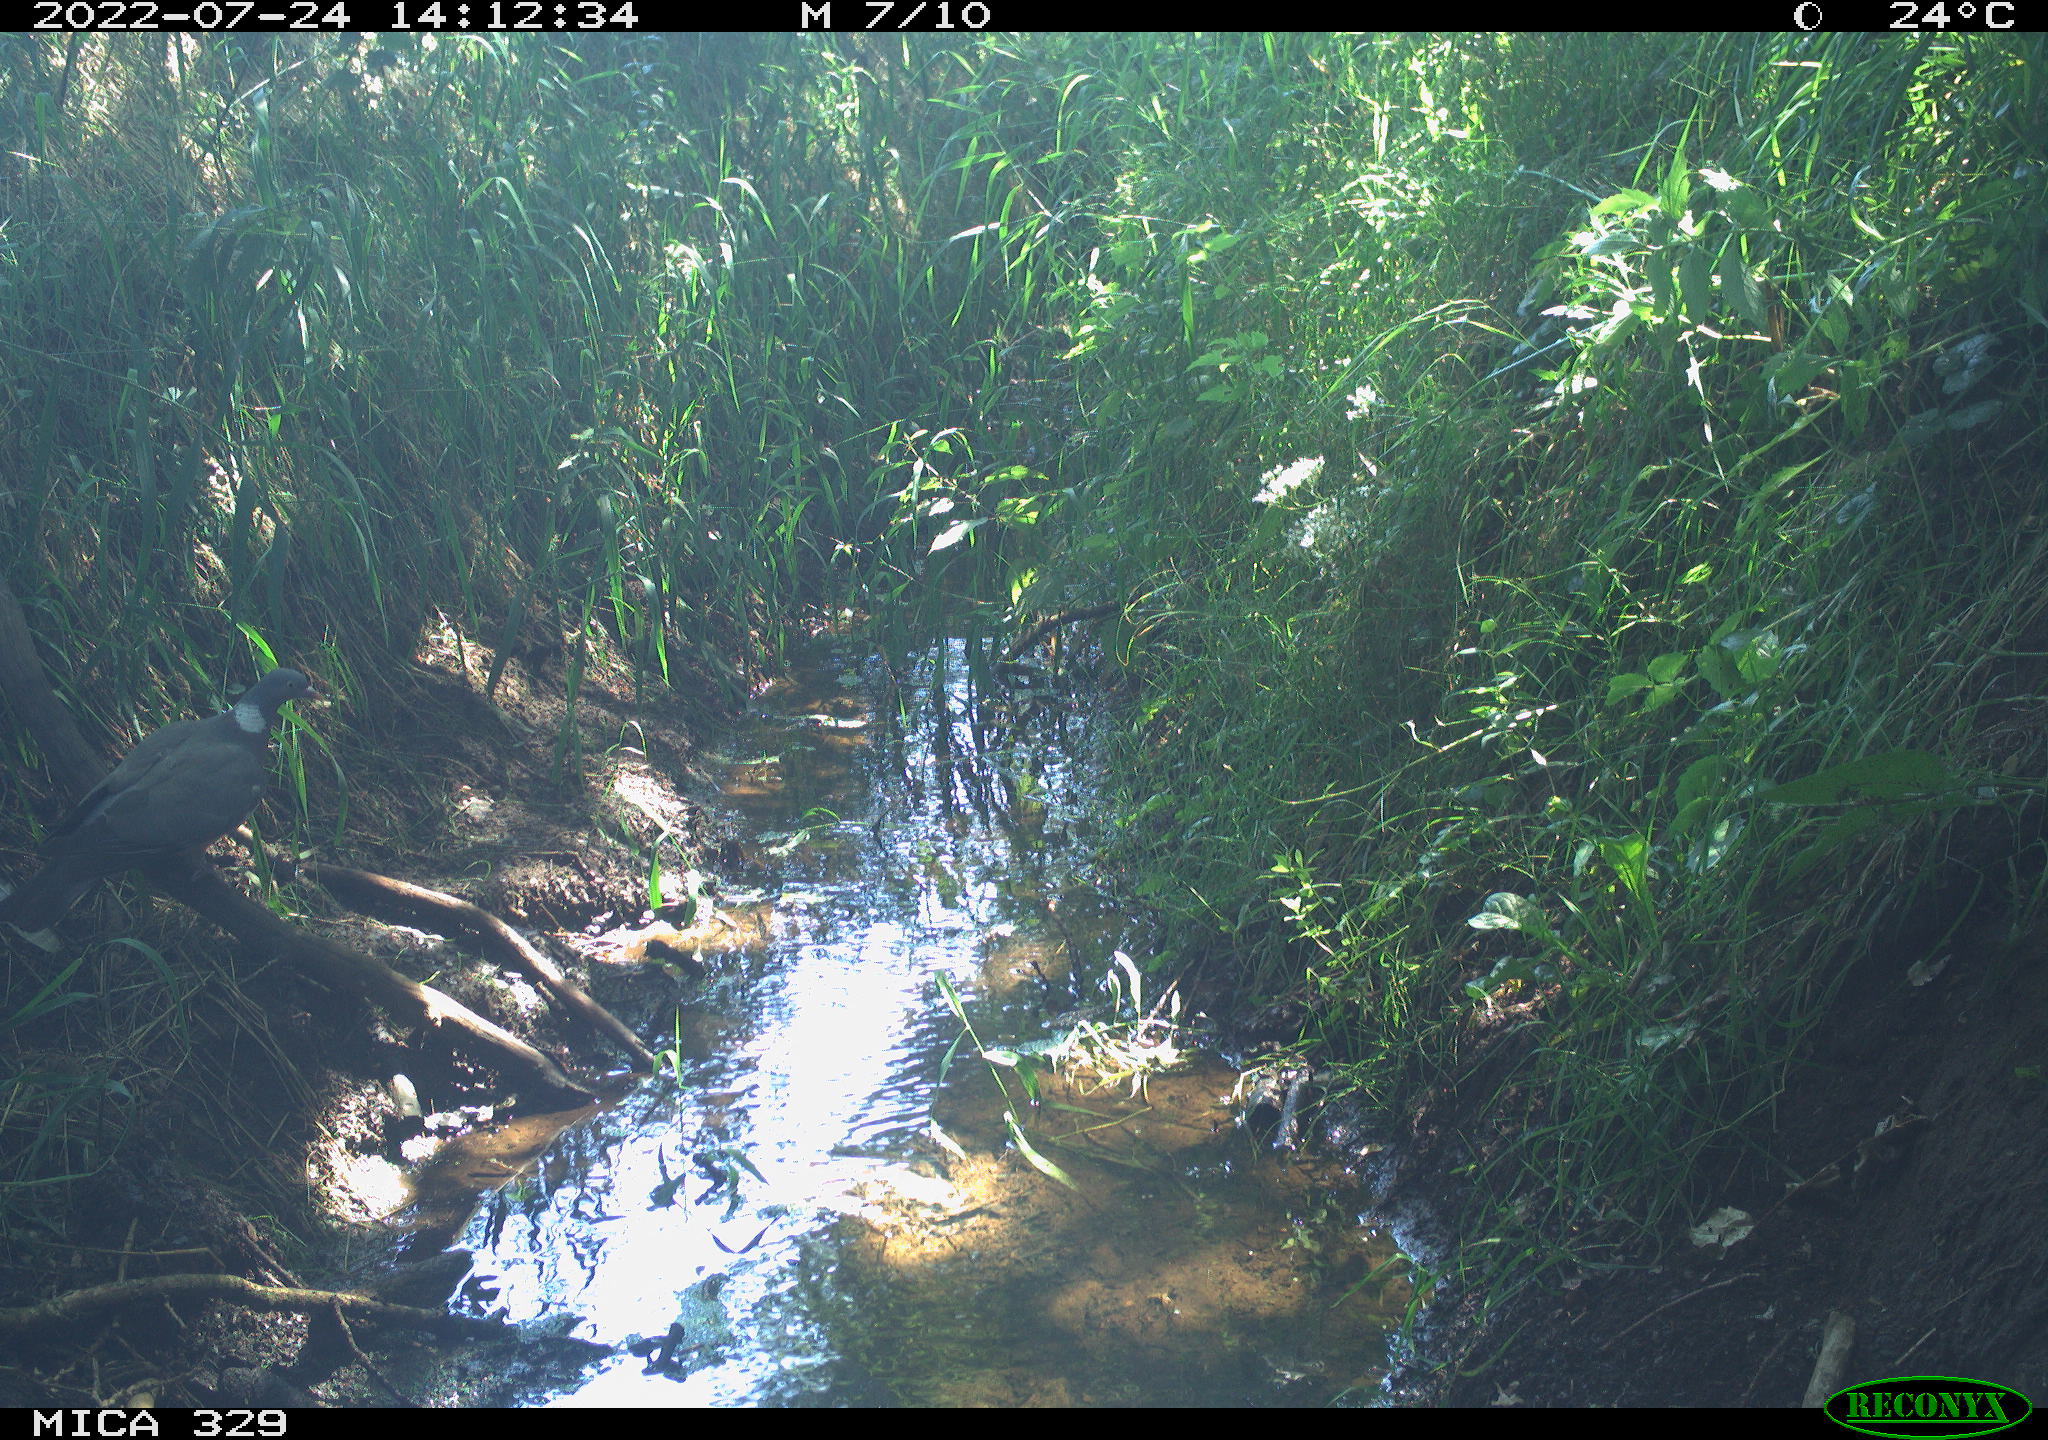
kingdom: Animalia
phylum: Chordata
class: Aves
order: Columbiformes
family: Columbidae
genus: Columba
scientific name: Columba palumbus
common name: Common wood pigeon
